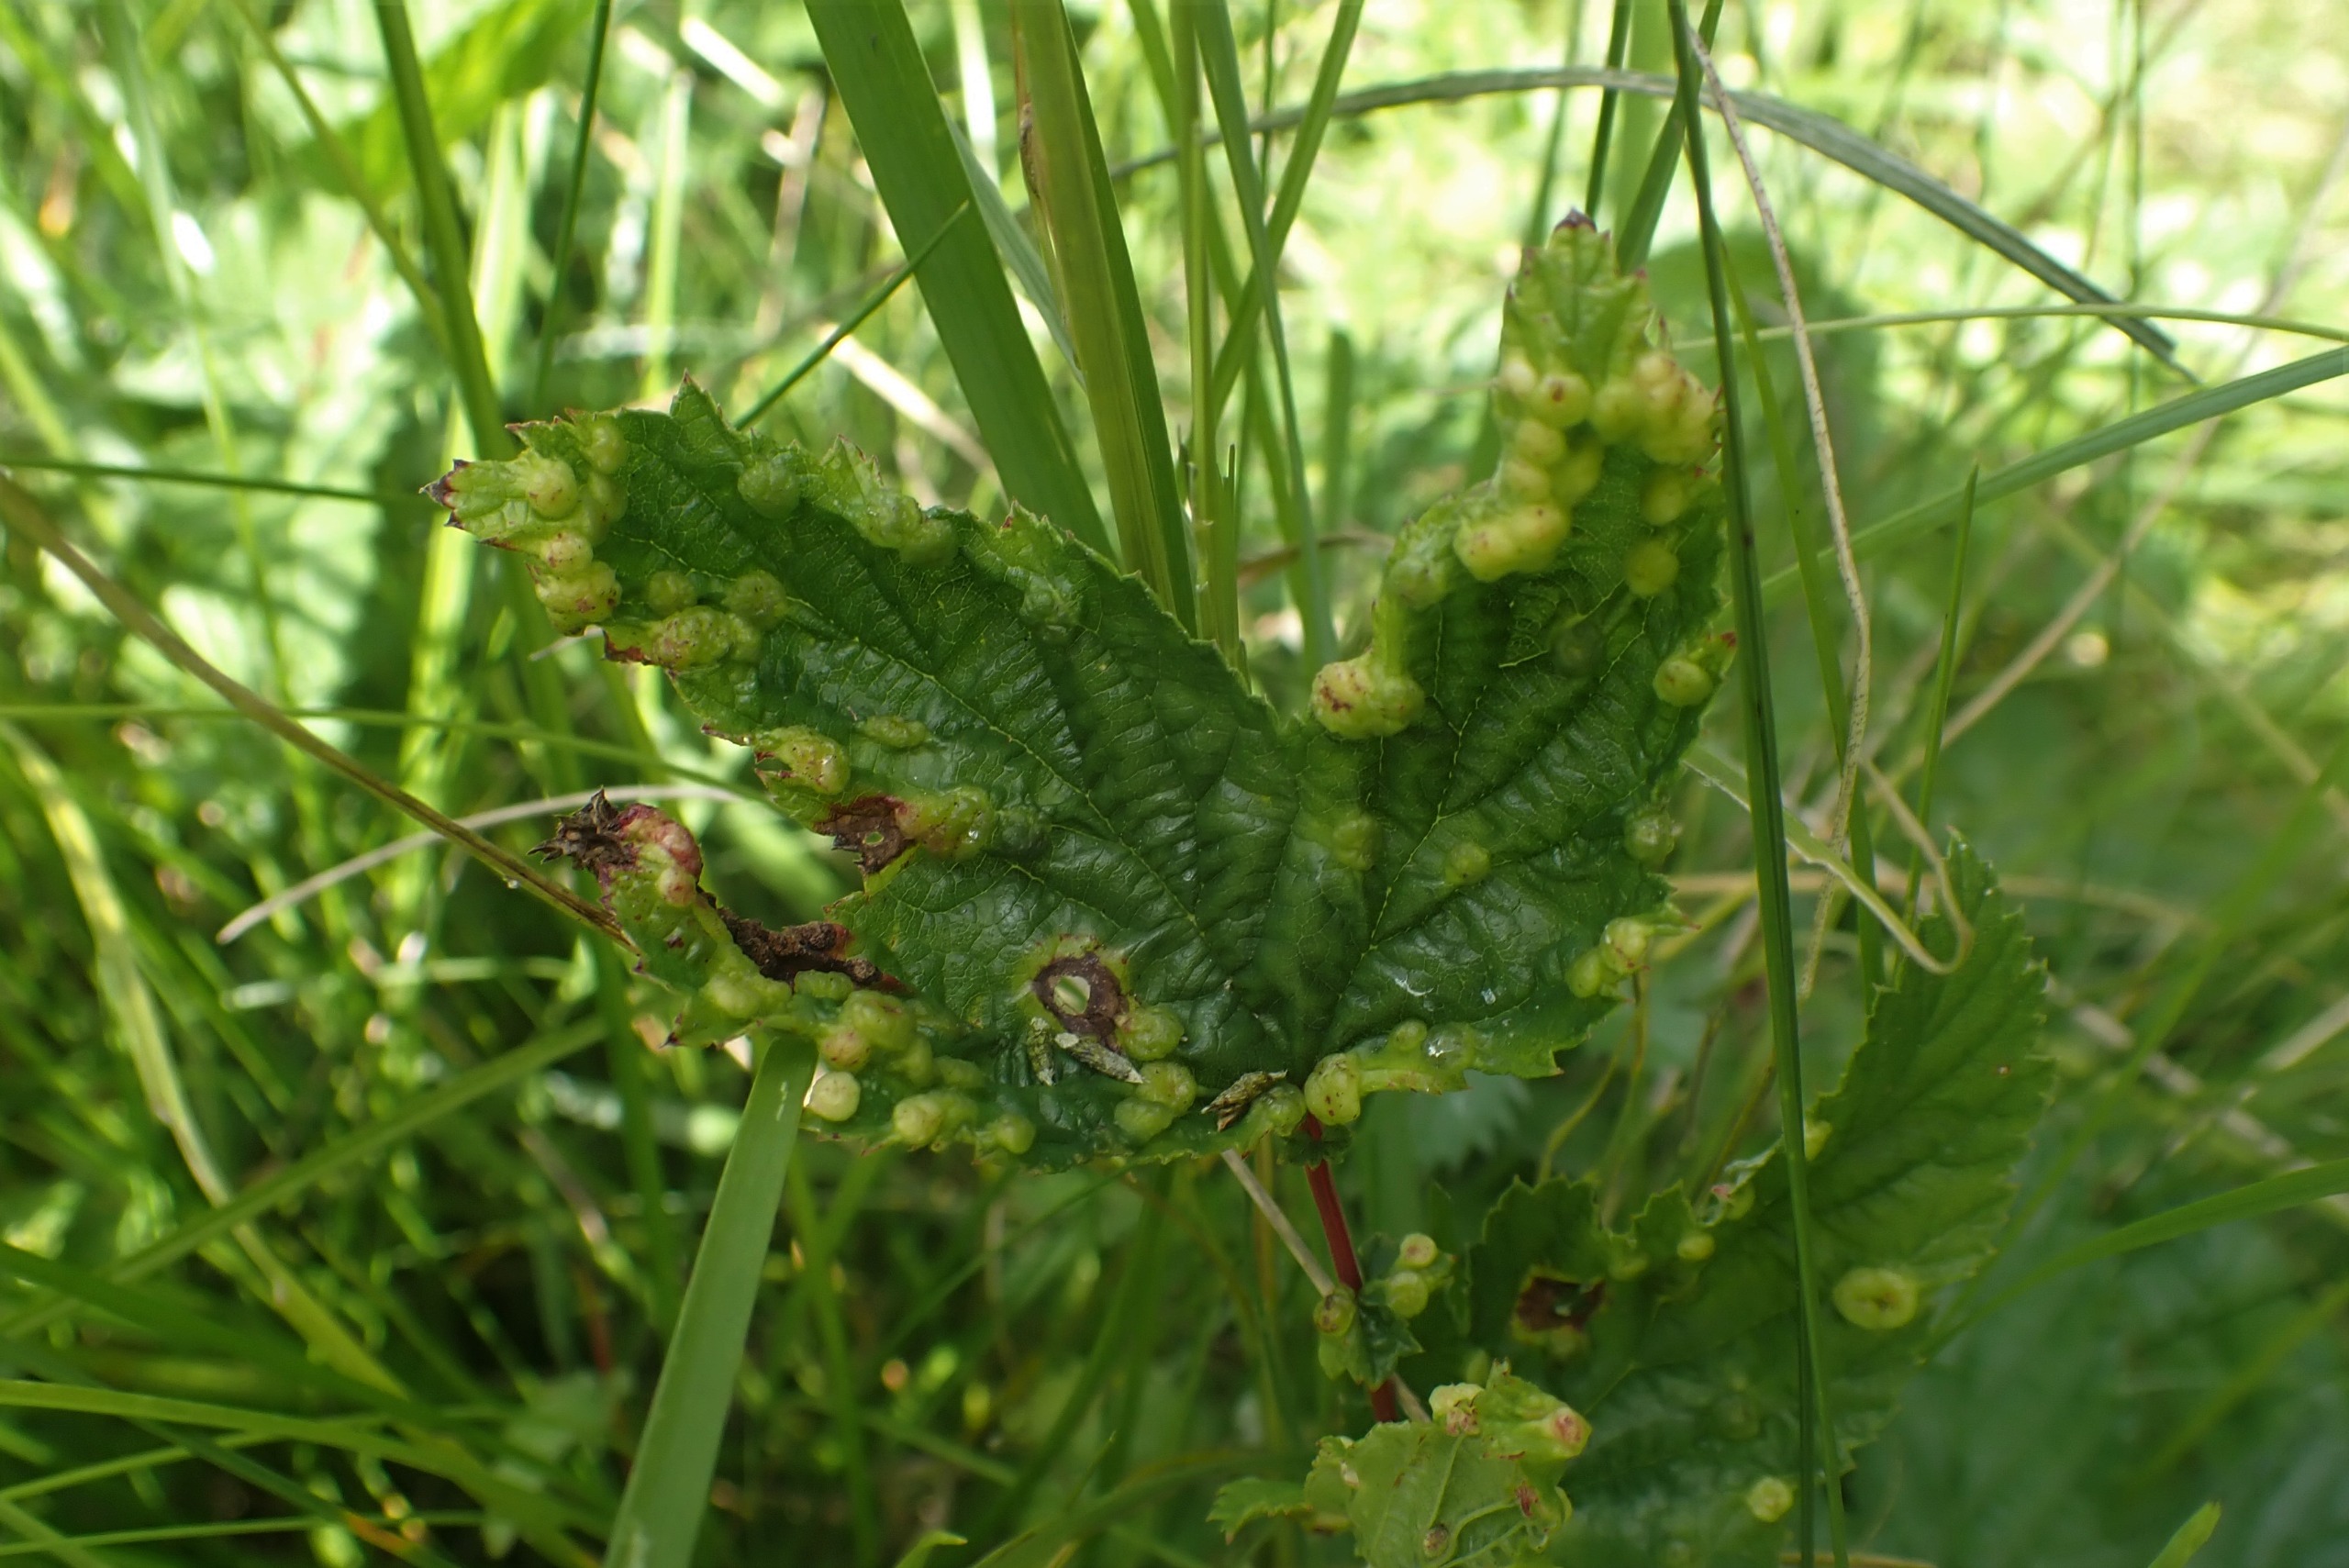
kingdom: Animalia
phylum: Arthropoda
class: Insecta
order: Diptera
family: Cecidomyiidae
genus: Dasineura
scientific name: Dasineura ulmaria
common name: Mjødurtgalmyg
